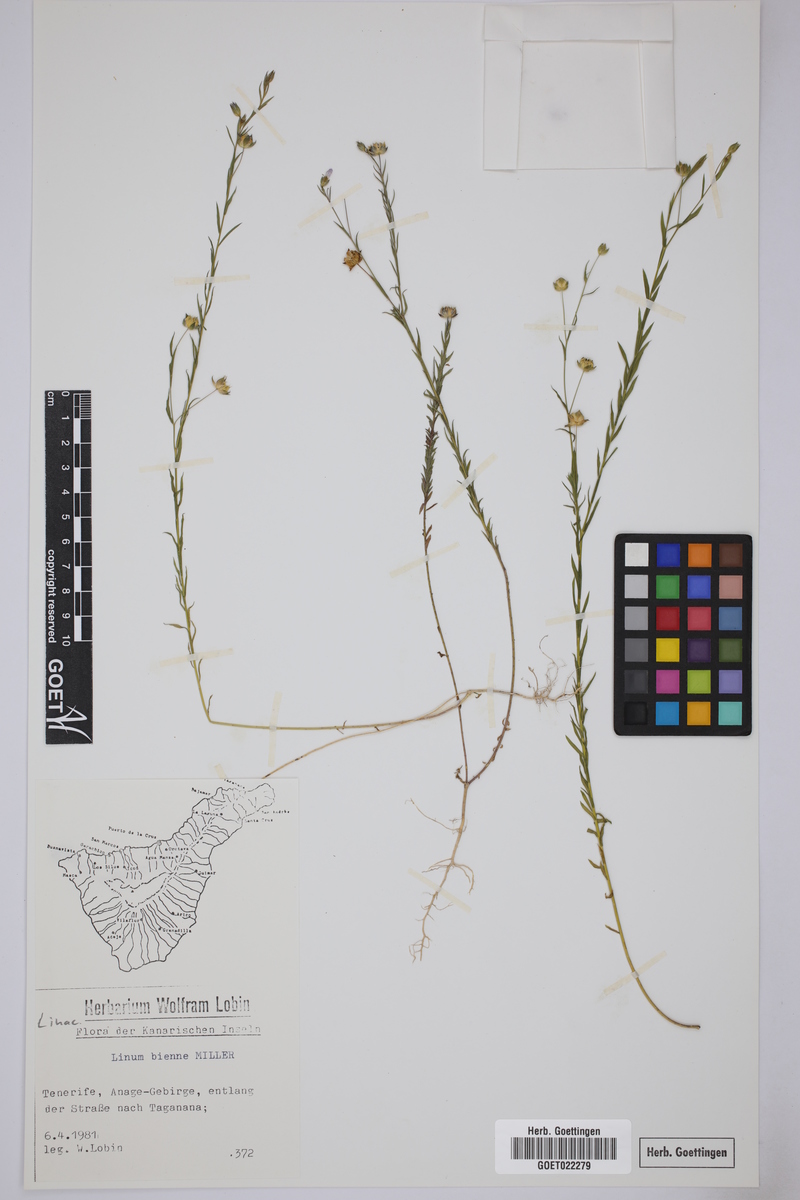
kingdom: Plantae
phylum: Tracheophyta
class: Magnoliopsida
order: Malpighiales
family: Linaceae
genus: Linum
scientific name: Linum bienne
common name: Pale flax
